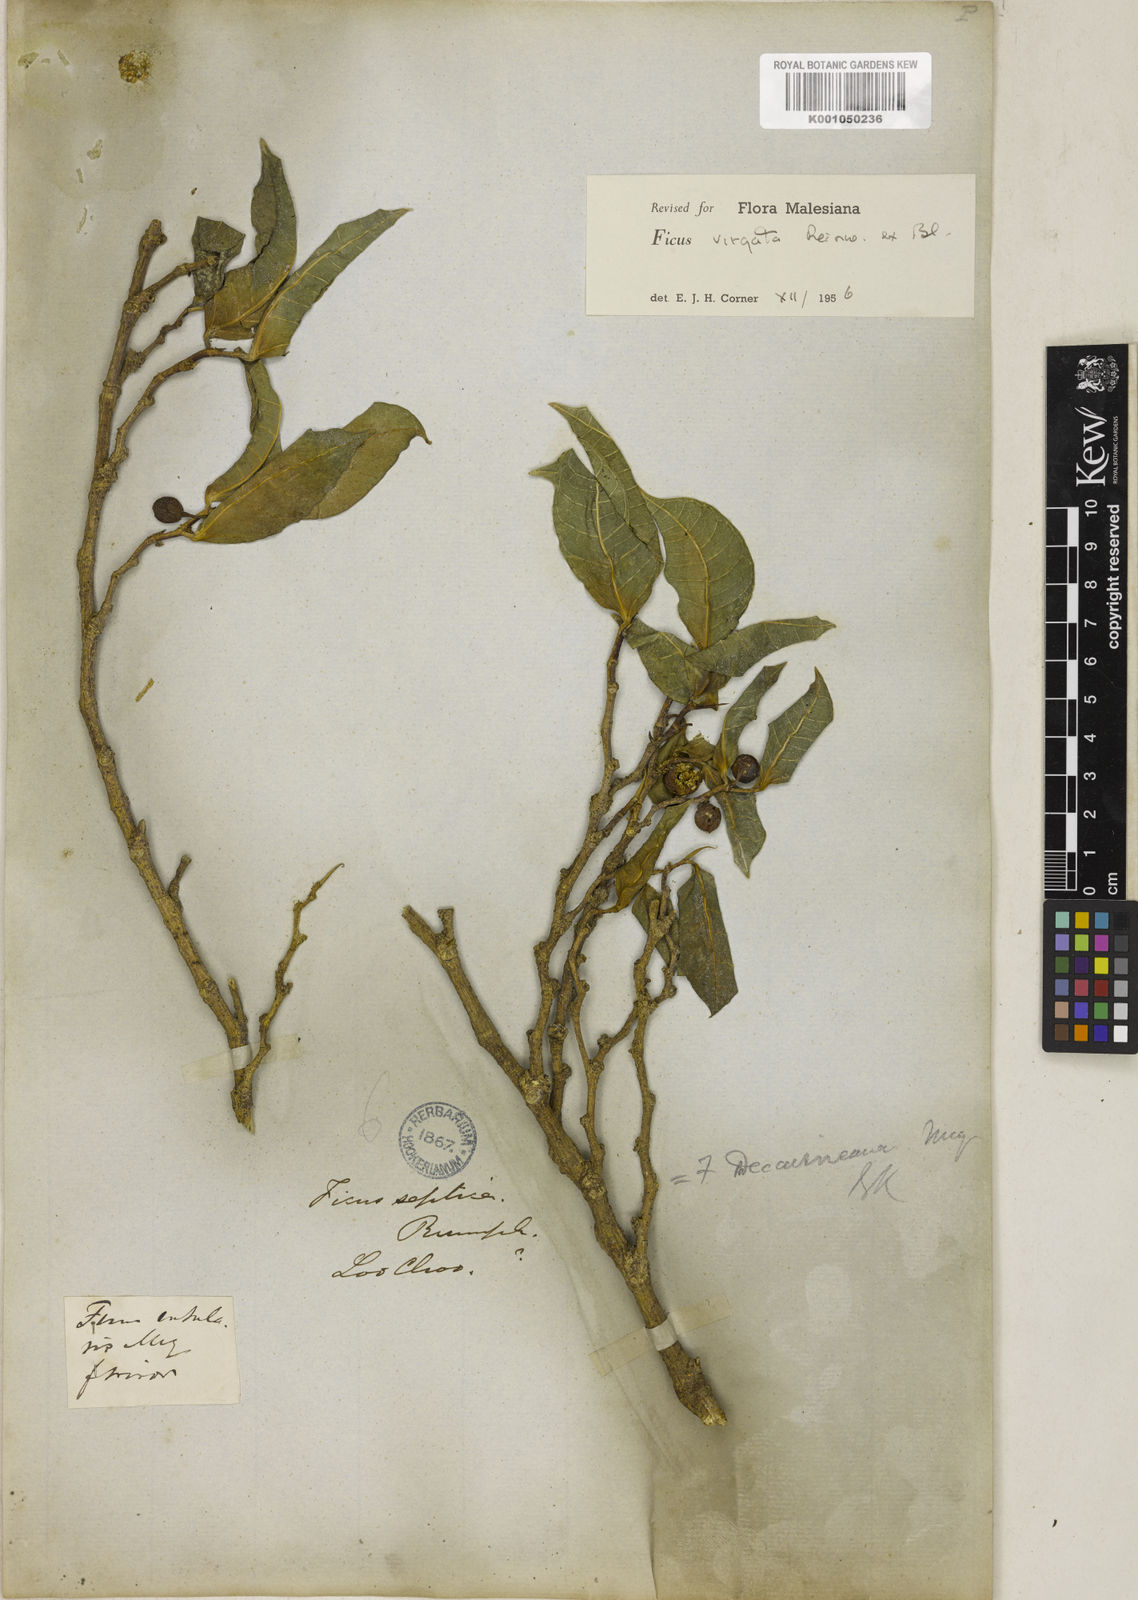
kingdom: Plantae
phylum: Tracheophyta
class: Magnoliopsida
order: Rosales
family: Moraceae
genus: Ficus
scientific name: Ficus virgata
